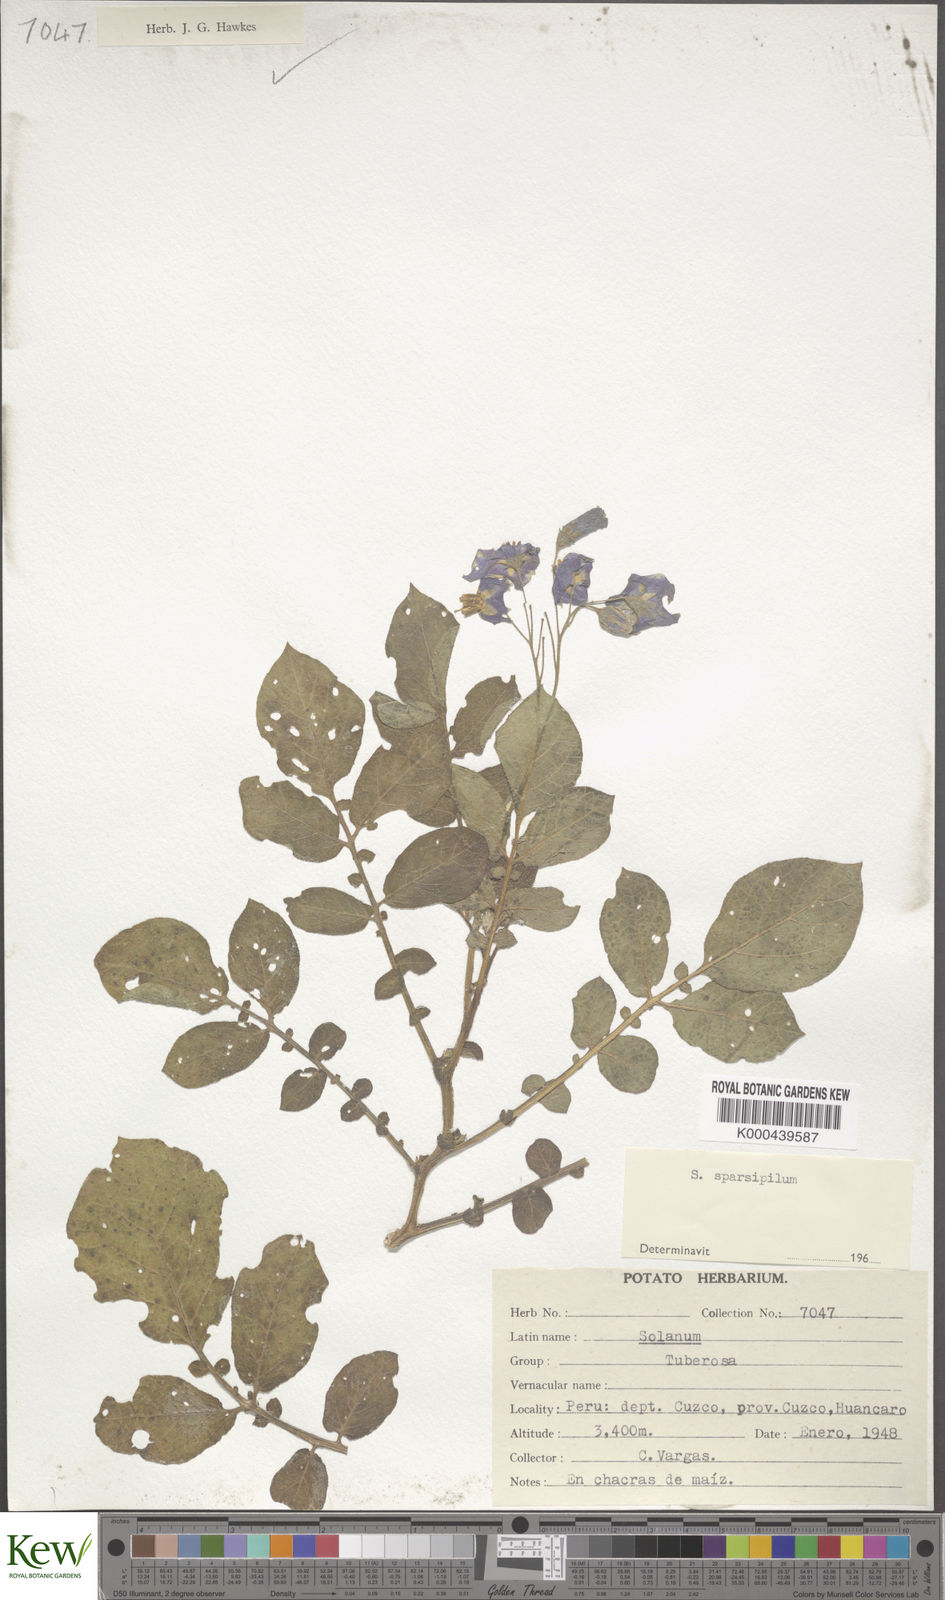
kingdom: Plantae
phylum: Tracheophyta
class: Magnoliopsida
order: Solanales
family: Solanaceae
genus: Solanum
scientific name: Solanum brevicaule
